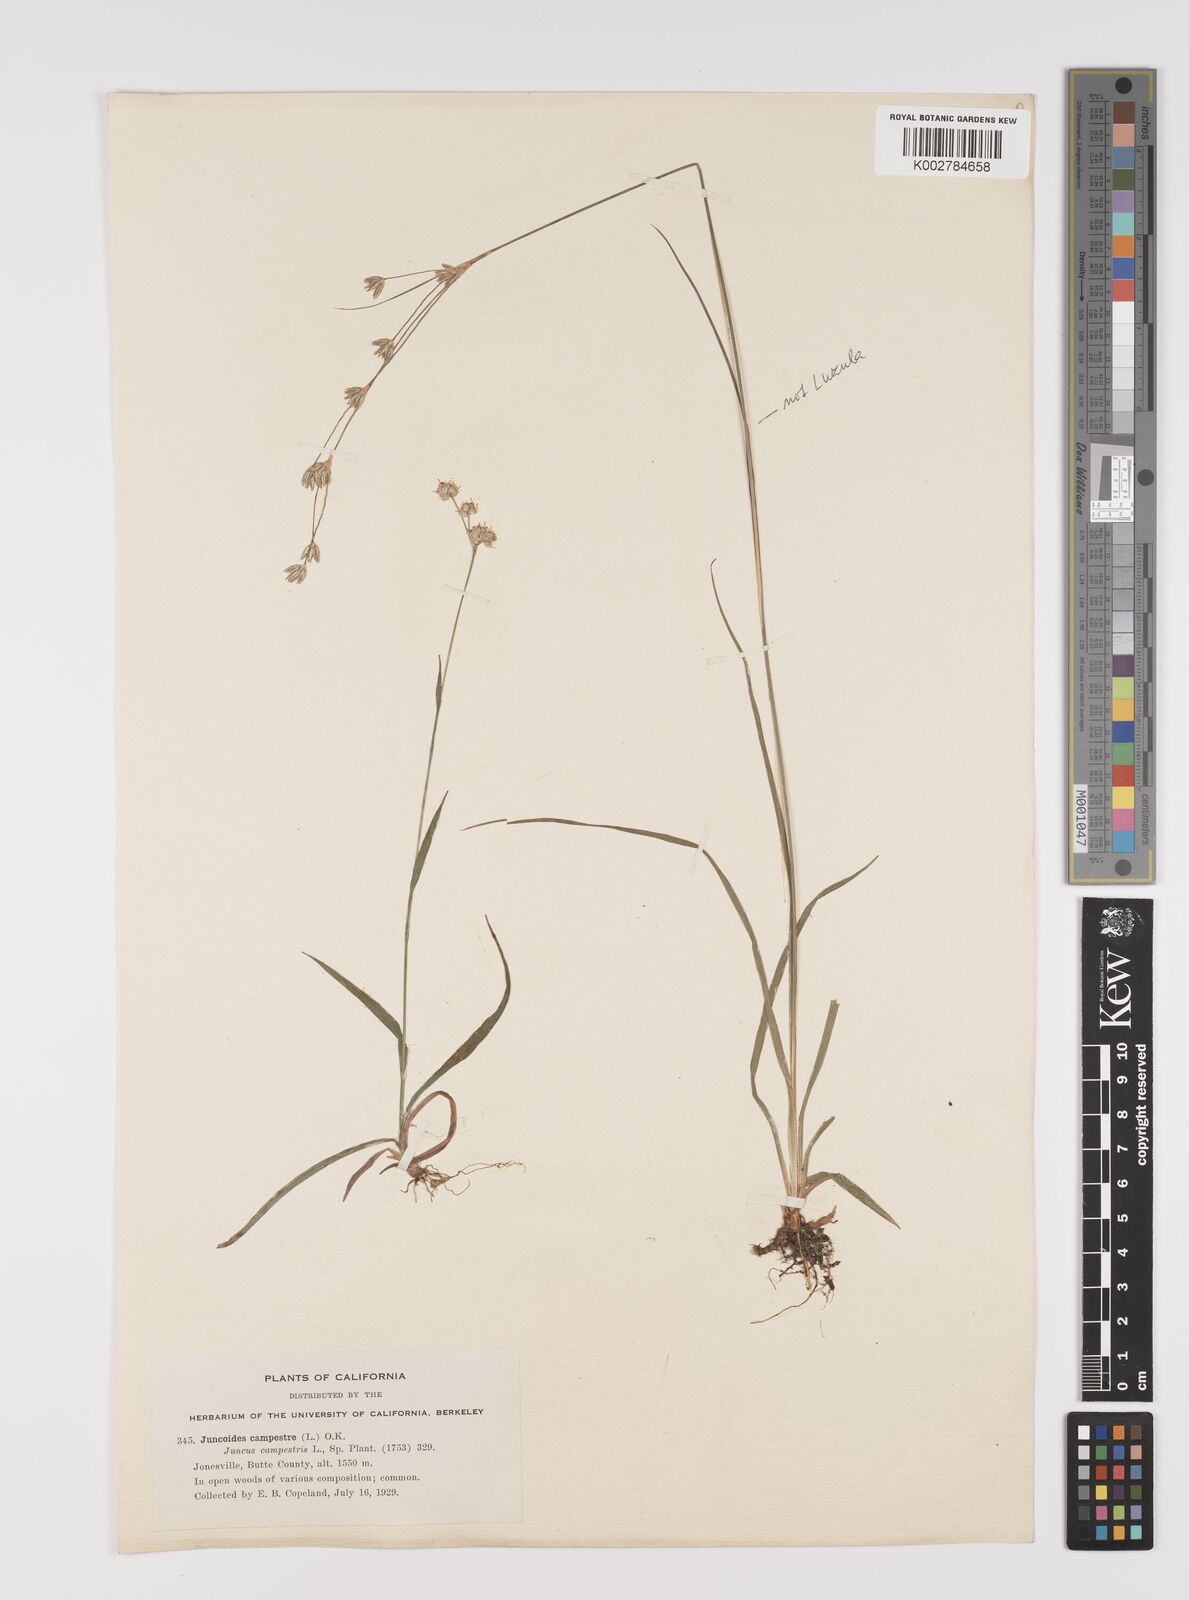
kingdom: Plantae
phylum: Tracheophyta
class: Liliopsida
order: Poales
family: Juncaceae
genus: Luzula
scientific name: Luzula campestris
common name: Field wood-rush
